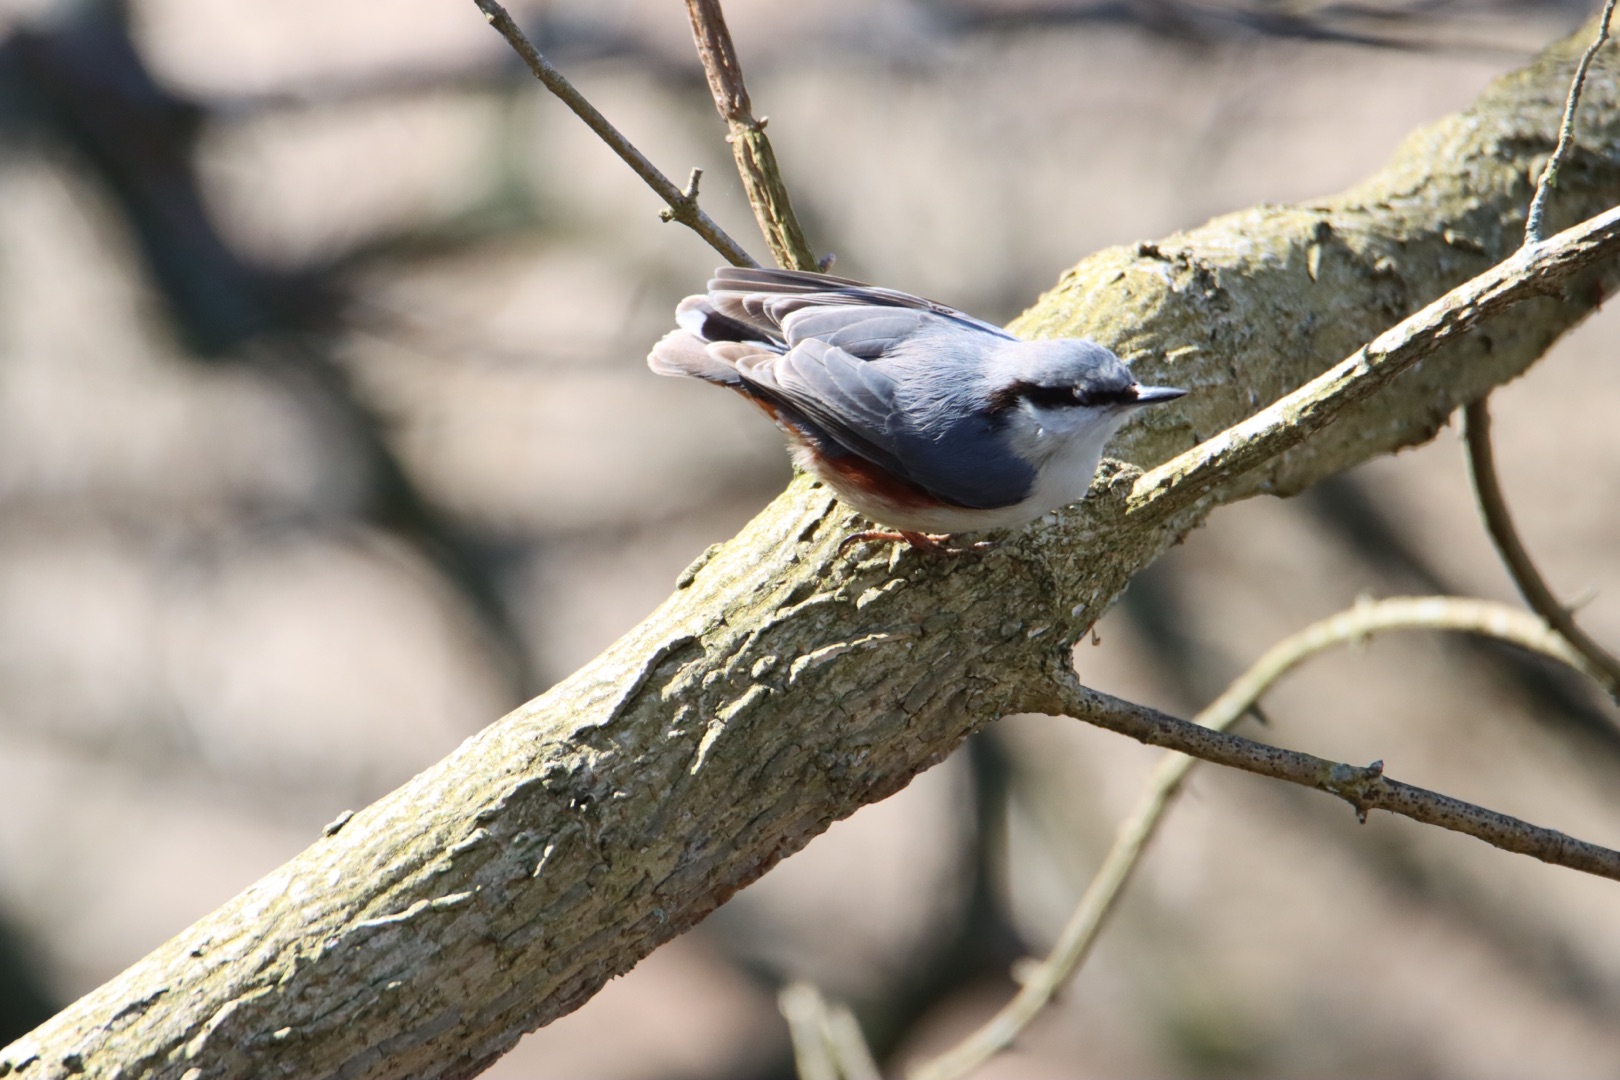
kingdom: Animalia
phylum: Chordata
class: Aves
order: Passeriformes
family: Sittidae
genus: Sitta
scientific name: Sitta europaea
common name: Spætmejse
